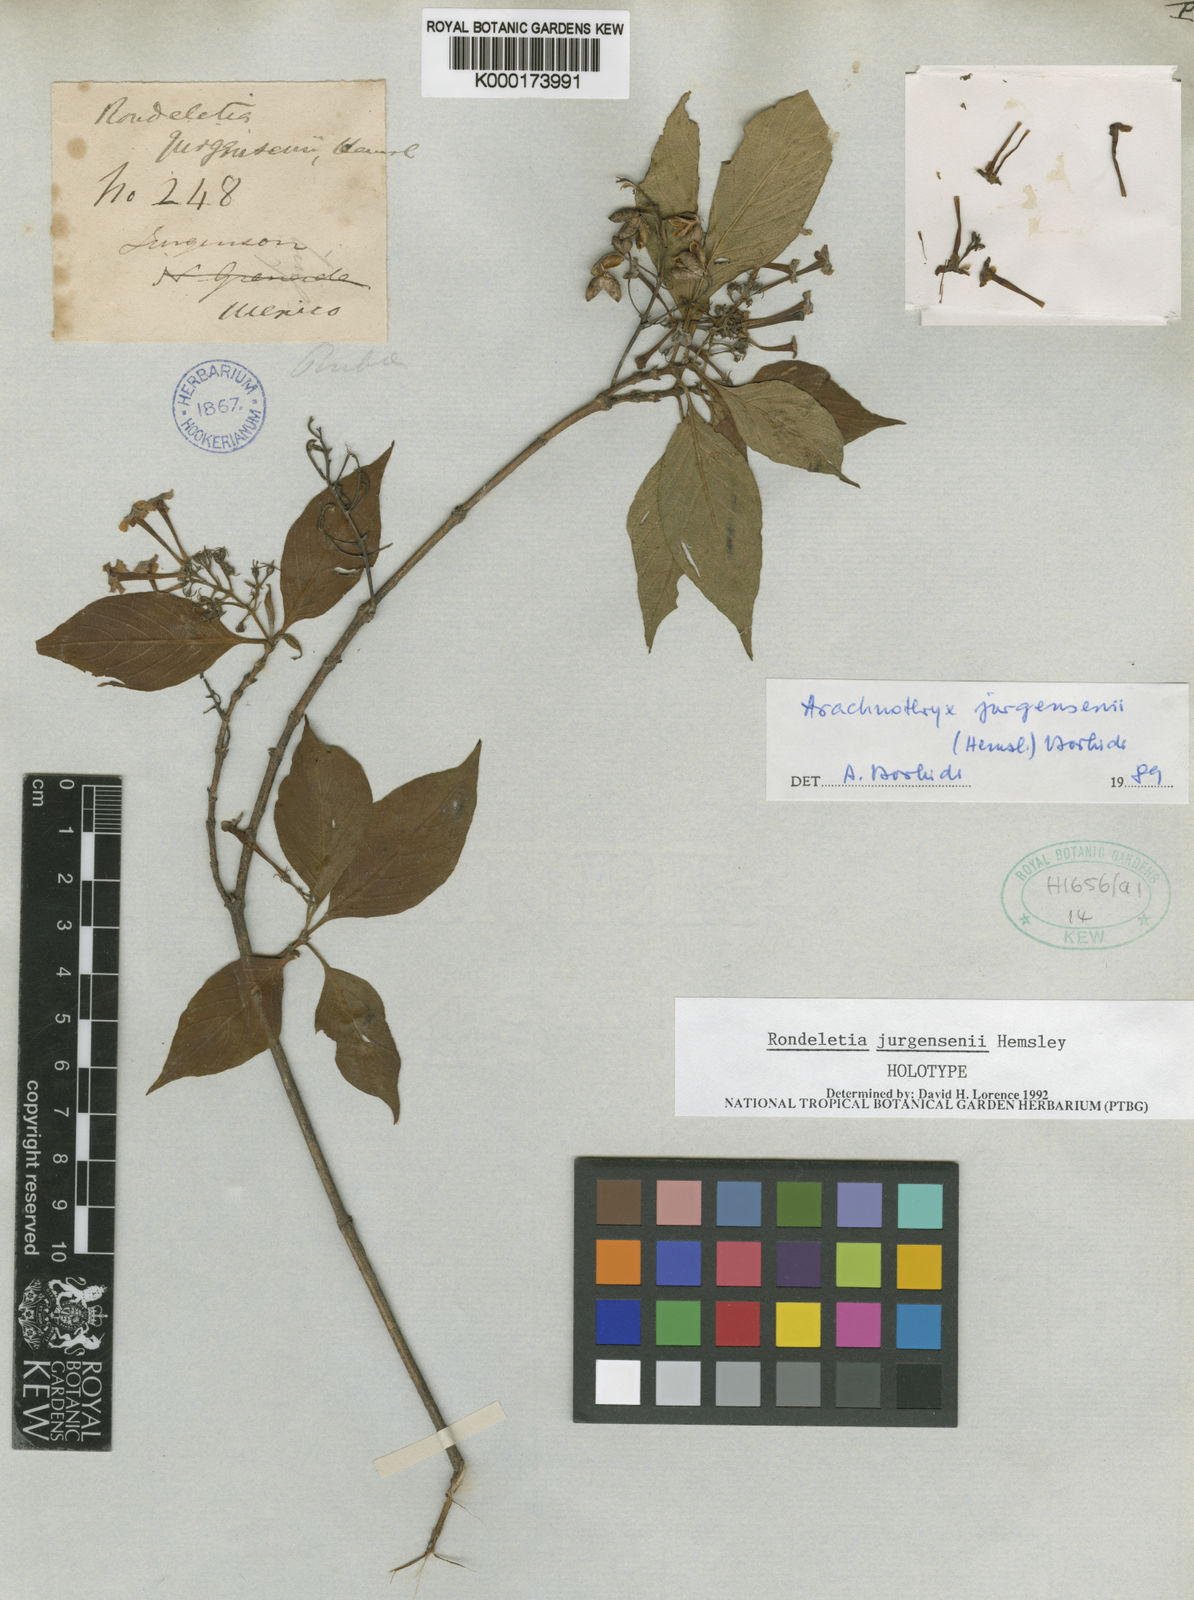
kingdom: Plantae
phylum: Tracheophyta
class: Magnoliopsida
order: Gentianales
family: Rubiaceae
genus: Arachnothryx
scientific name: Arachnothryx jurgensenii
